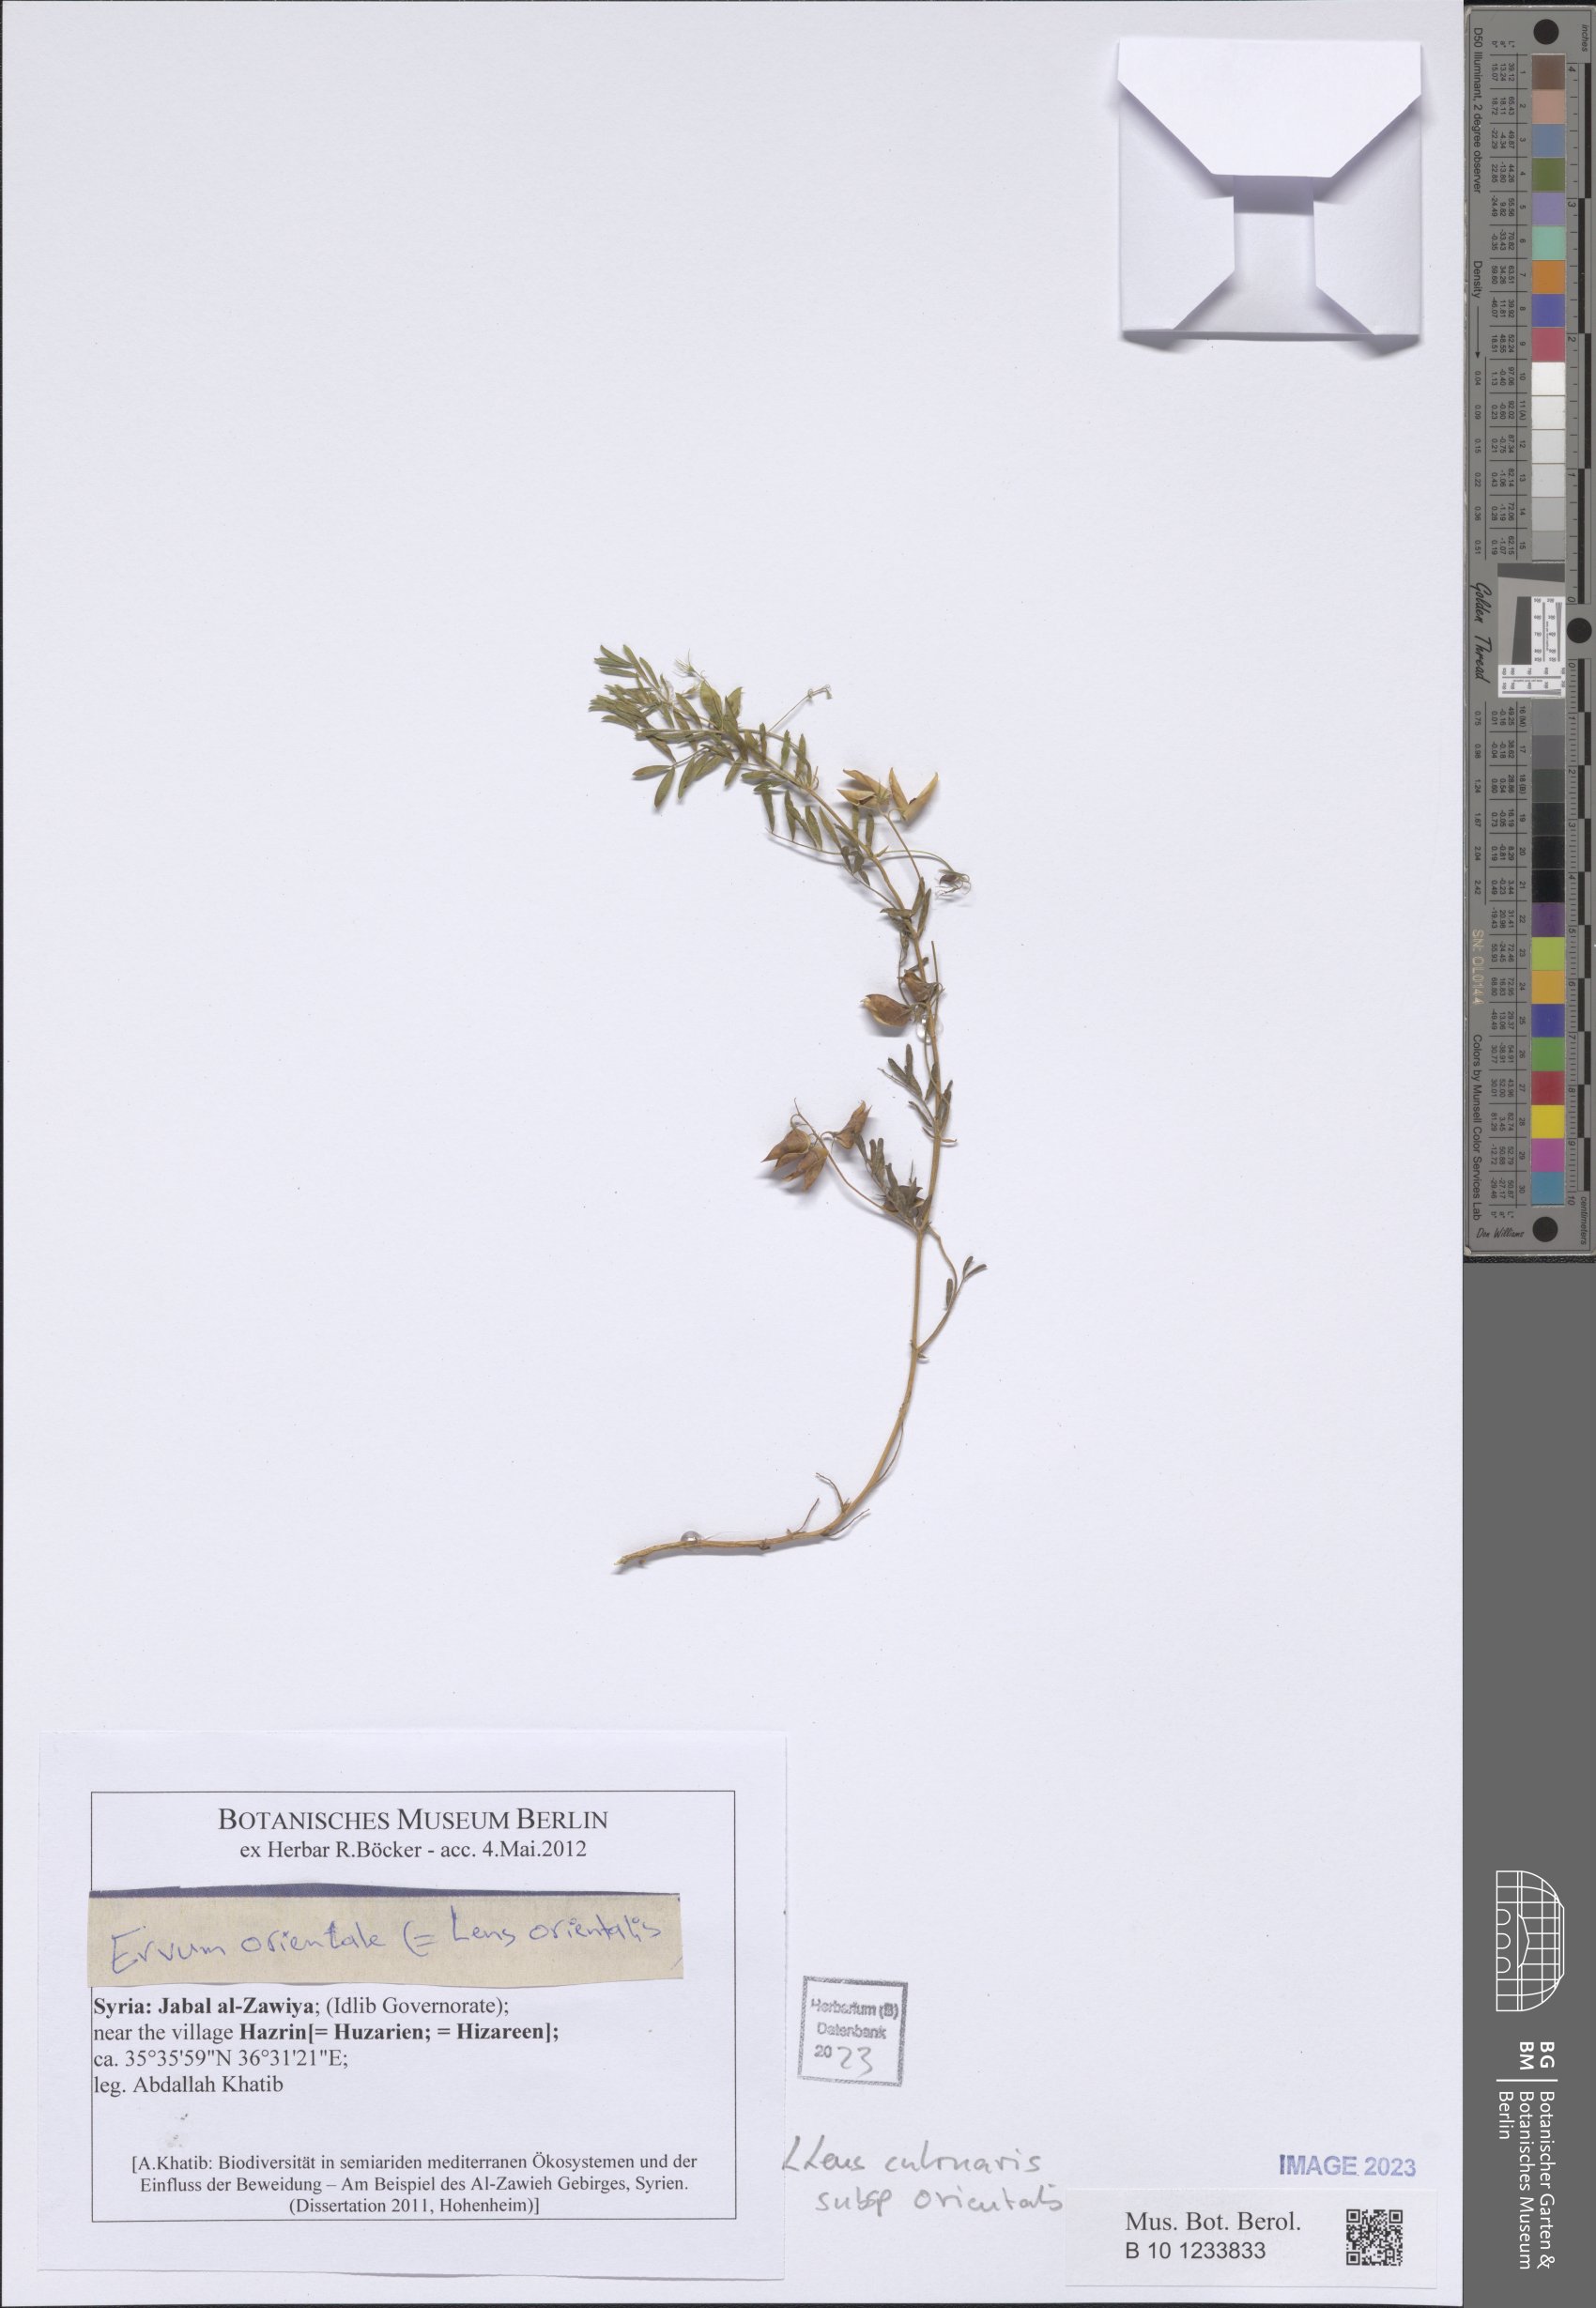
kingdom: Plantae
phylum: Tracheophyta
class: Magnoliopsida
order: Fabales
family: Fabaceae
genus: Vicia
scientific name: Vicia orientalis
